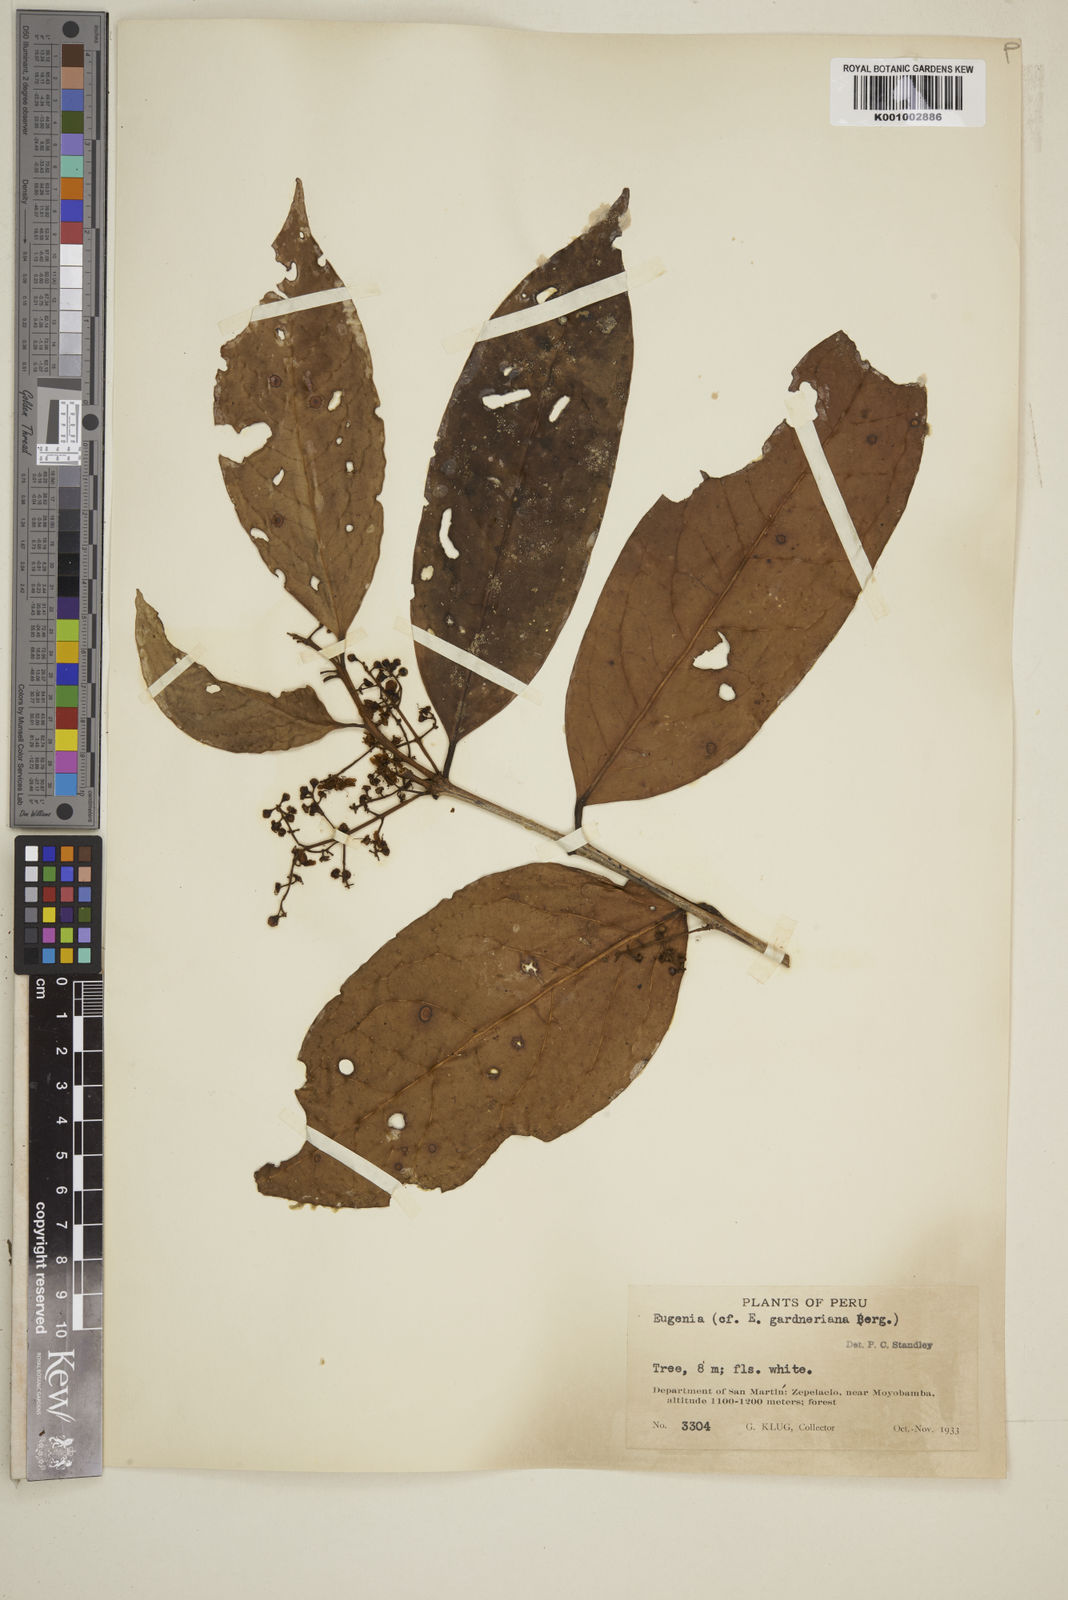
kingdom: Plantae
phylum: Tracheophyta
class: Magnoliopsida
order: Myrtales
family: Myrtaceae
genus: Eugenia
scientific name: Eugenia florida
